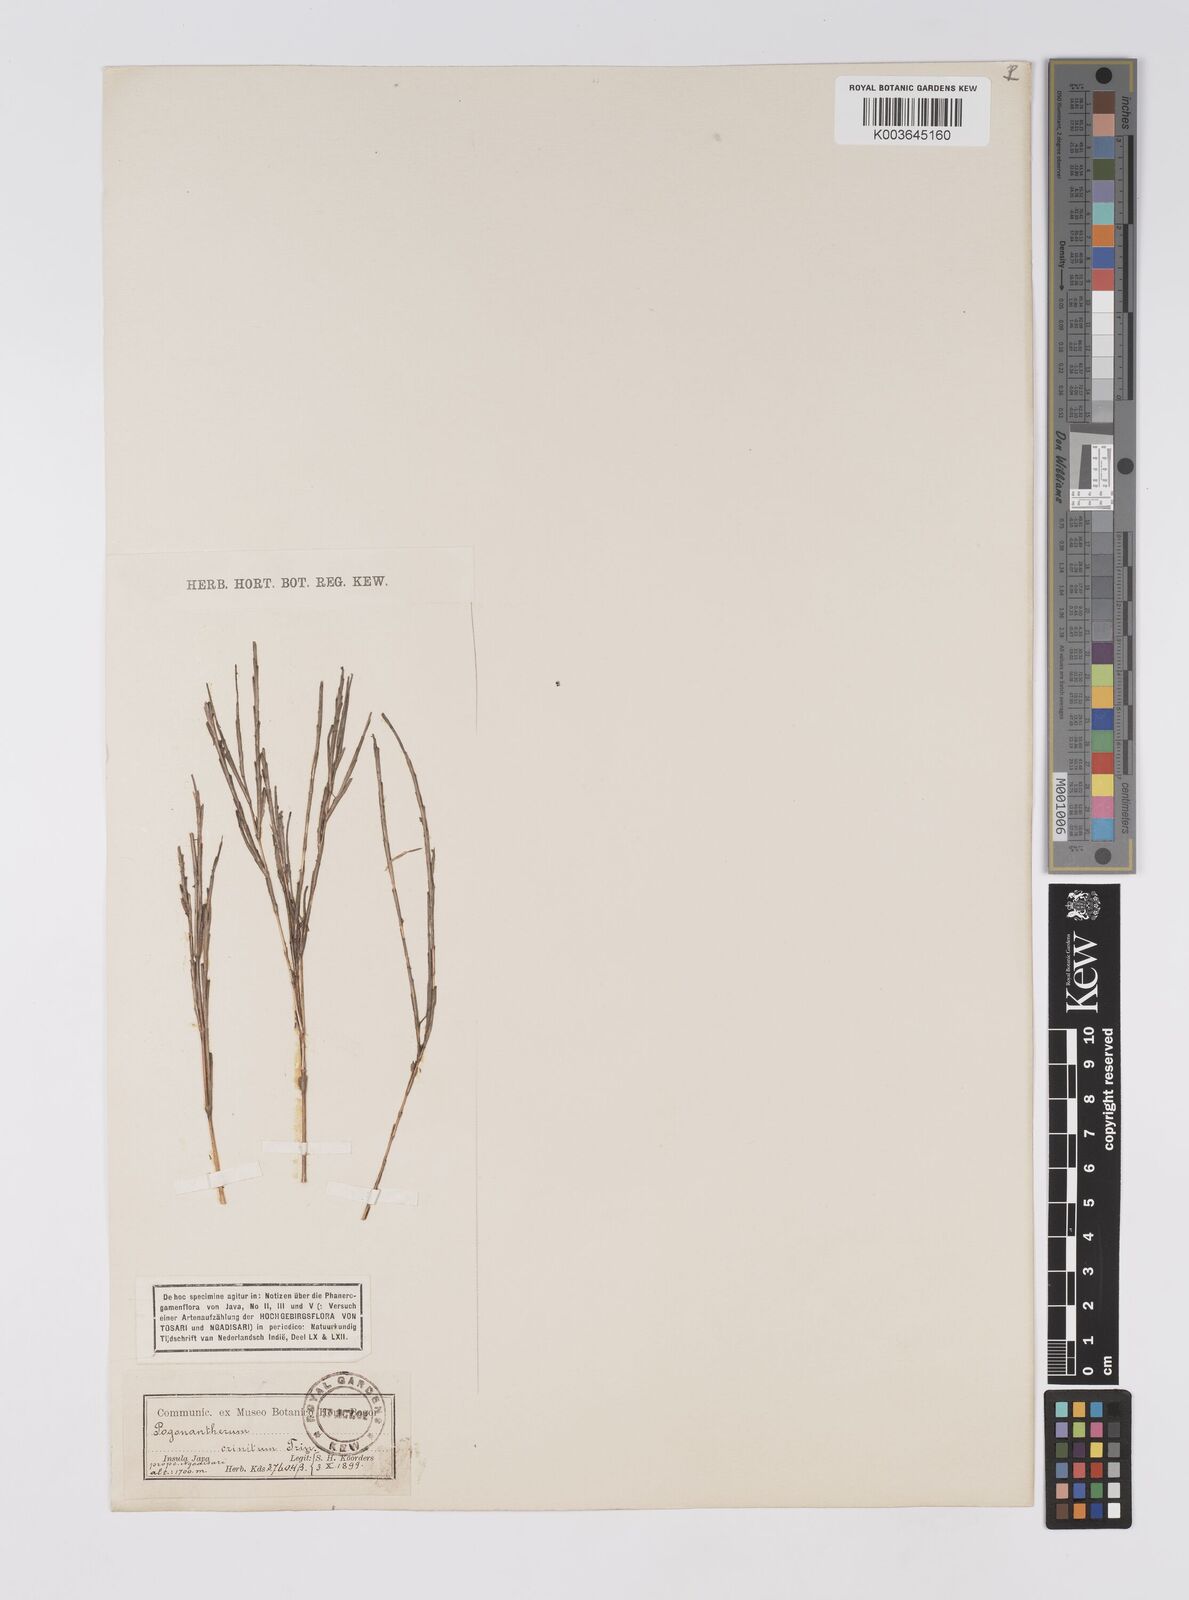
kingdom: Plantae
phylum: Tracheophyta
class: Liliopsida
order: Poales
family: Poaceae
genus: Pogonatherum
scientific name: Pogonatherum crinitum
